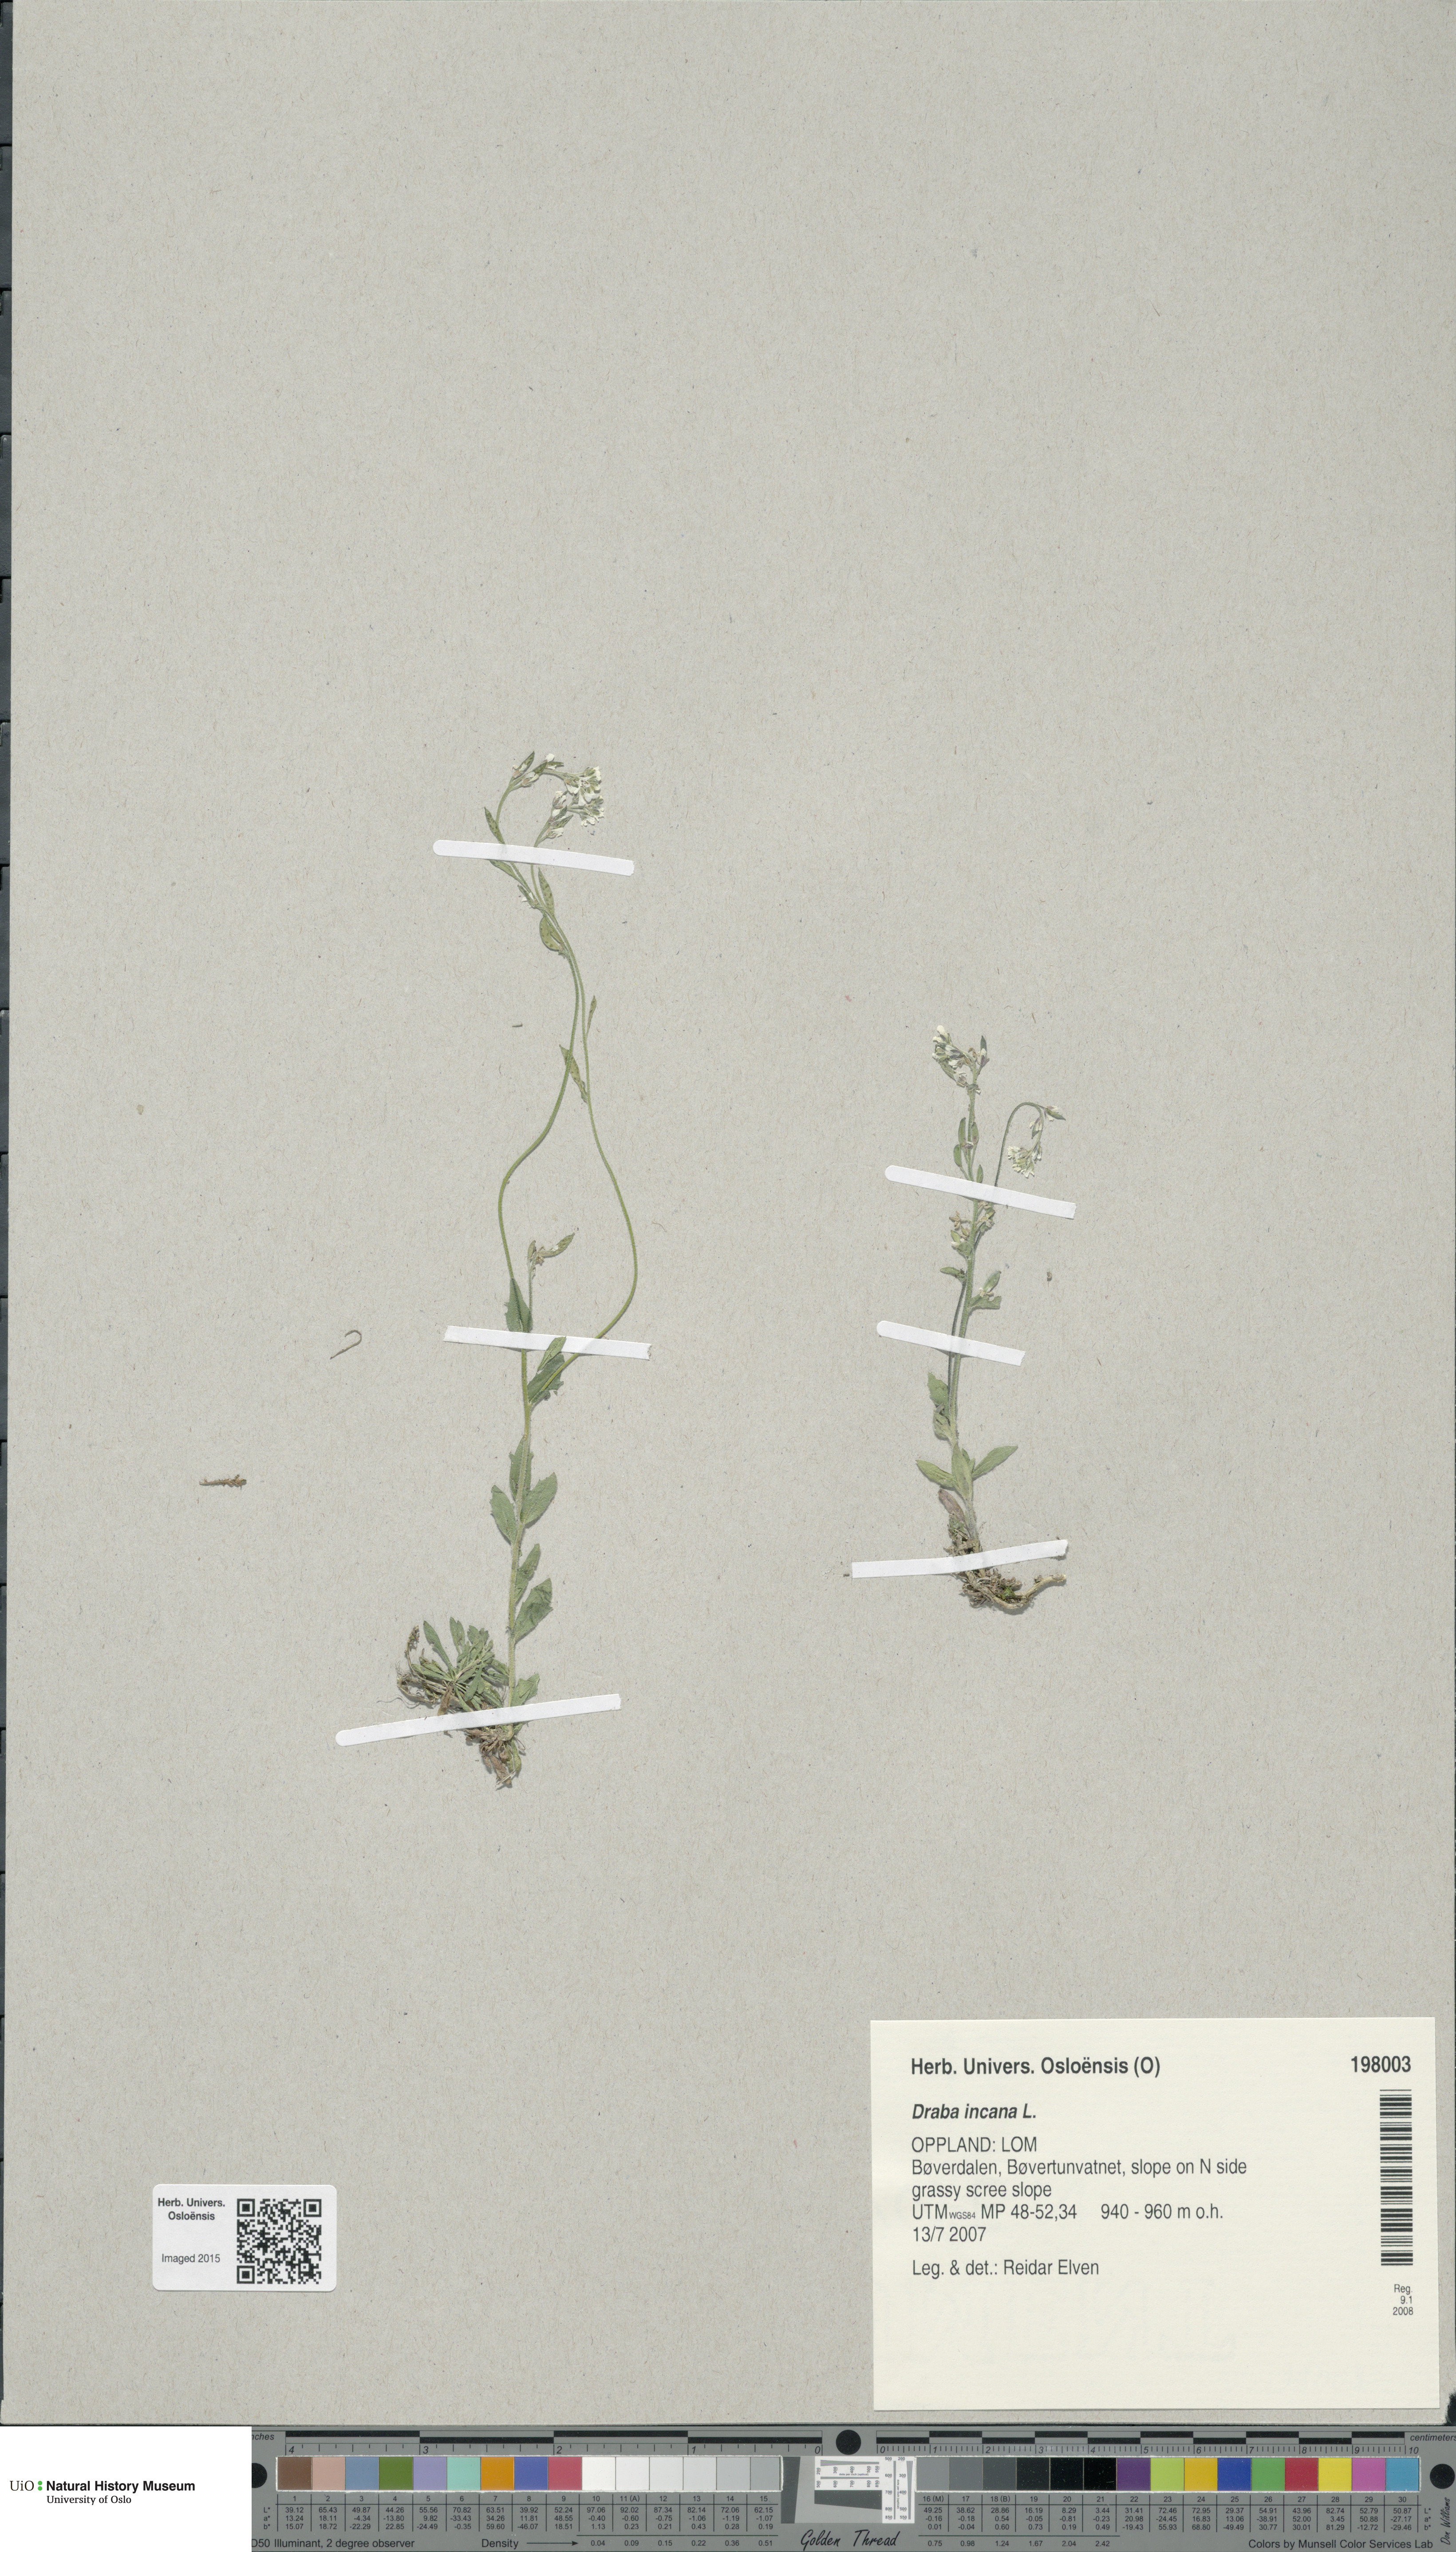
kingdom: Plantae
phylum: Tracheophyta
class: Magnoliopsida
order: Brassicales
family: Brassicaceae
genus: Draba
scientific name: Draba incana
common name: Hoary whitlow-grass
